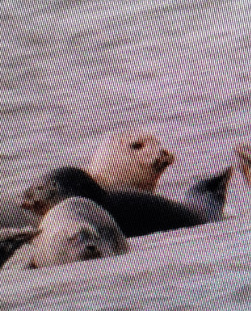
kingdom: Animalia
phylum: Chordata
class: Mammalia
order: Carnivora
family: Phocidae
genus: Phoca
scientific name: Phoca vitulina
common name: Spættet sæl
